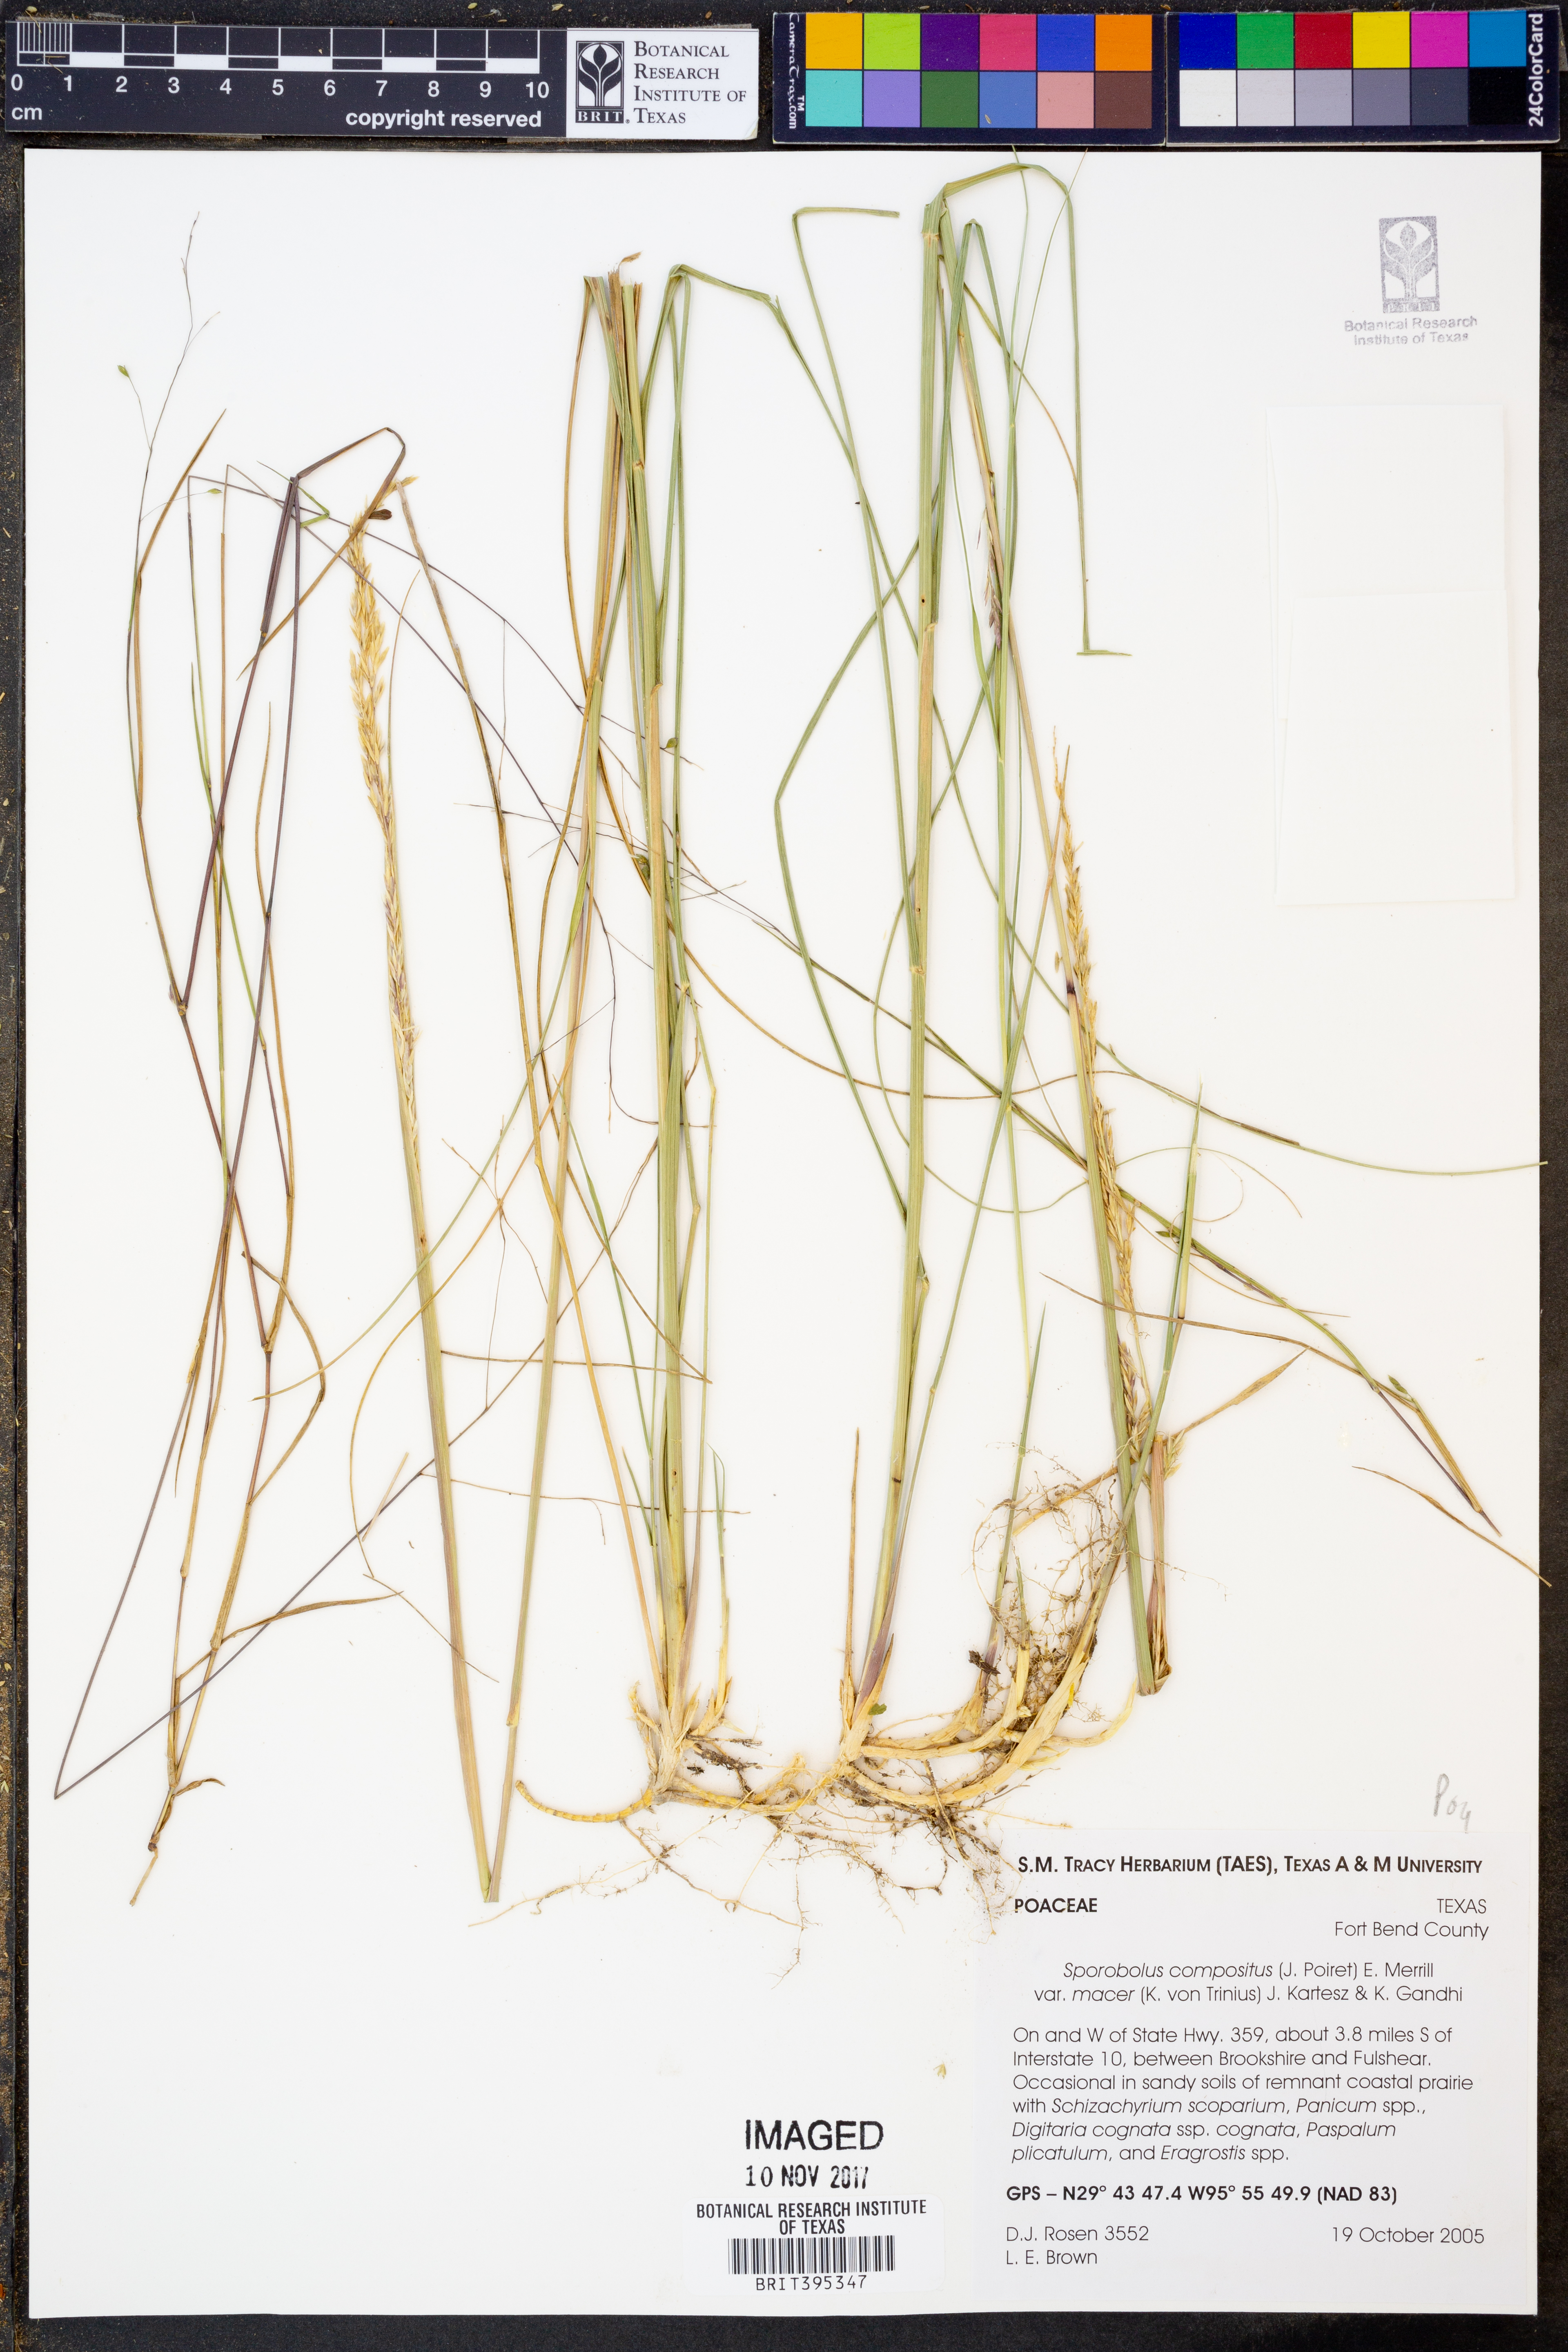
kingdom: Plantae
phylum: Tracheophyta
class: Liliopsida
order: Poales
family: Poaceae
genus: Sporobolus
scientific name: Sporobolus macer
